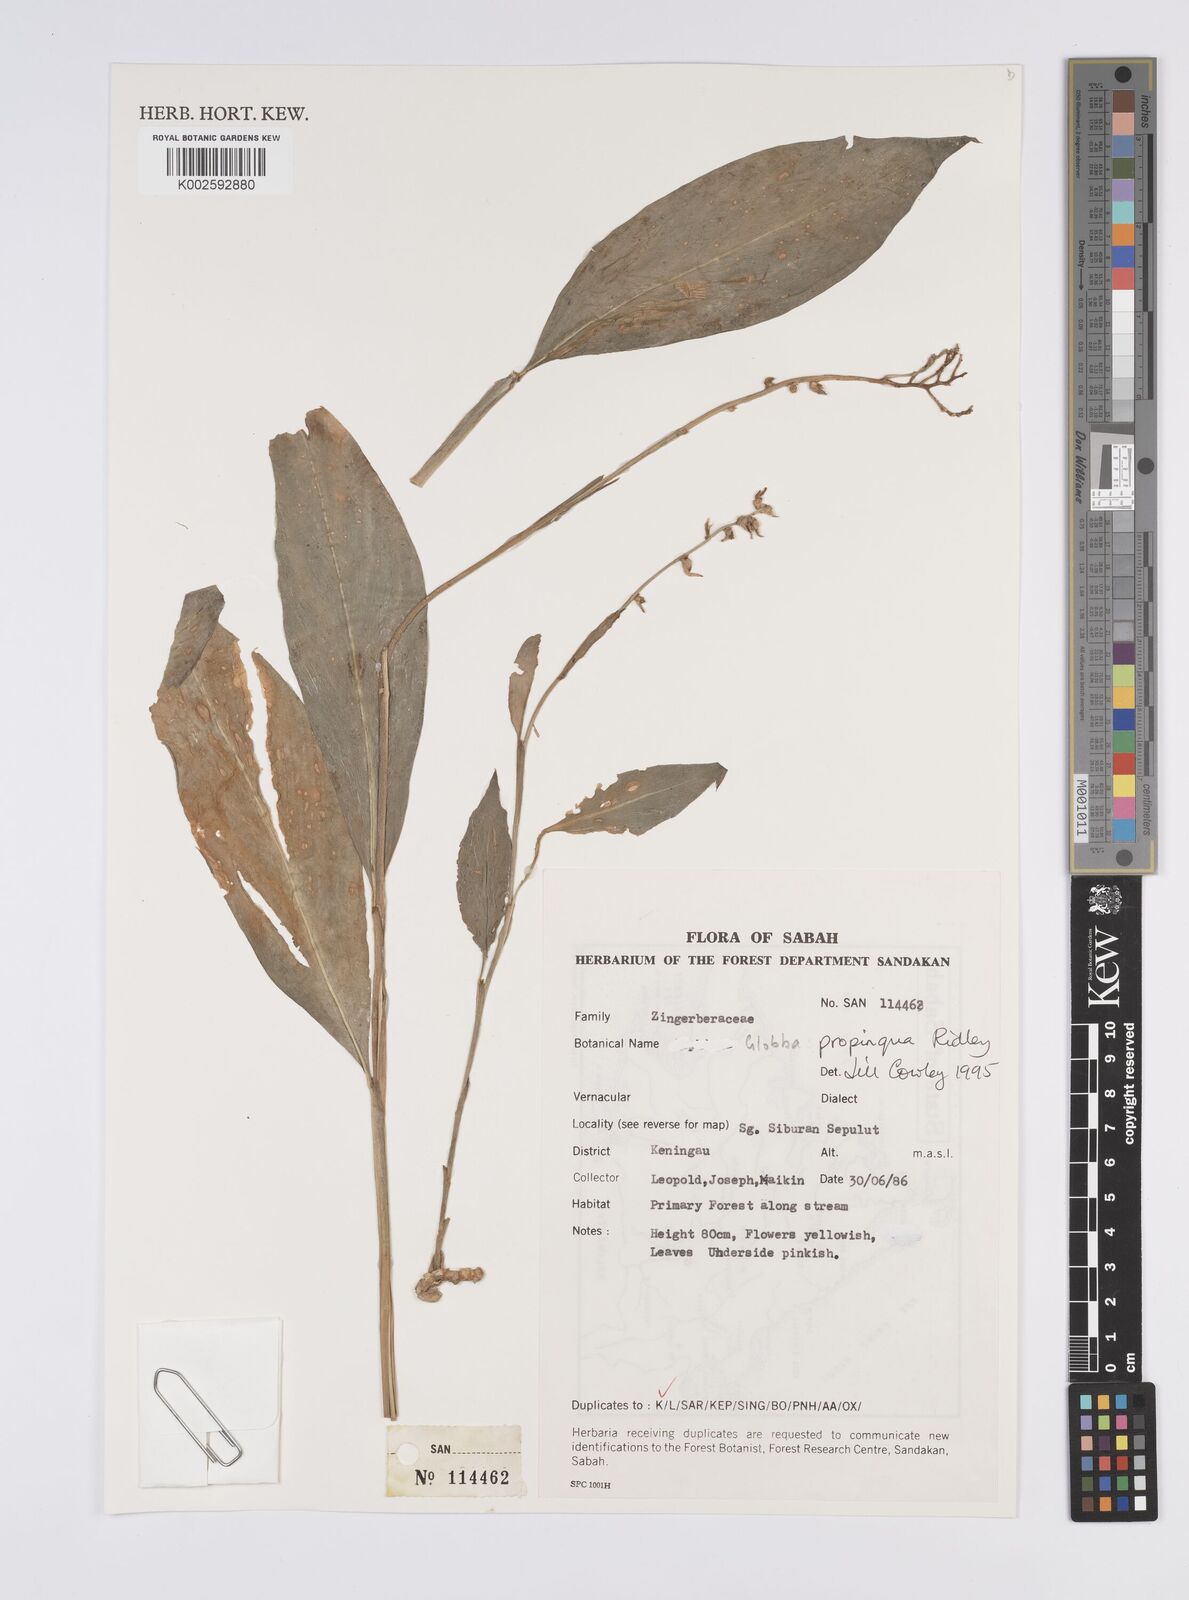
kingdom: Plantae
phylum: Tracheophyta
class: Liliopsida
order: Zingiberales
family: Zingiberaceae
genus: Globba
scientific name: Globba propinqua
